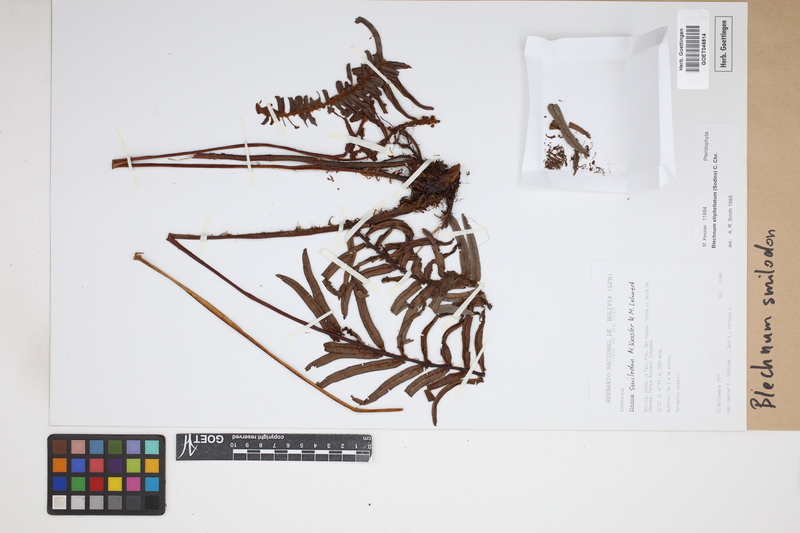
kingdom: Plantae
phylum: Tracheophyta
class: Polypodiopsida
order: Polypodiales
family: Blechnaceae
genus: Parablechnum
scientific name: Parablechnum smilodon
